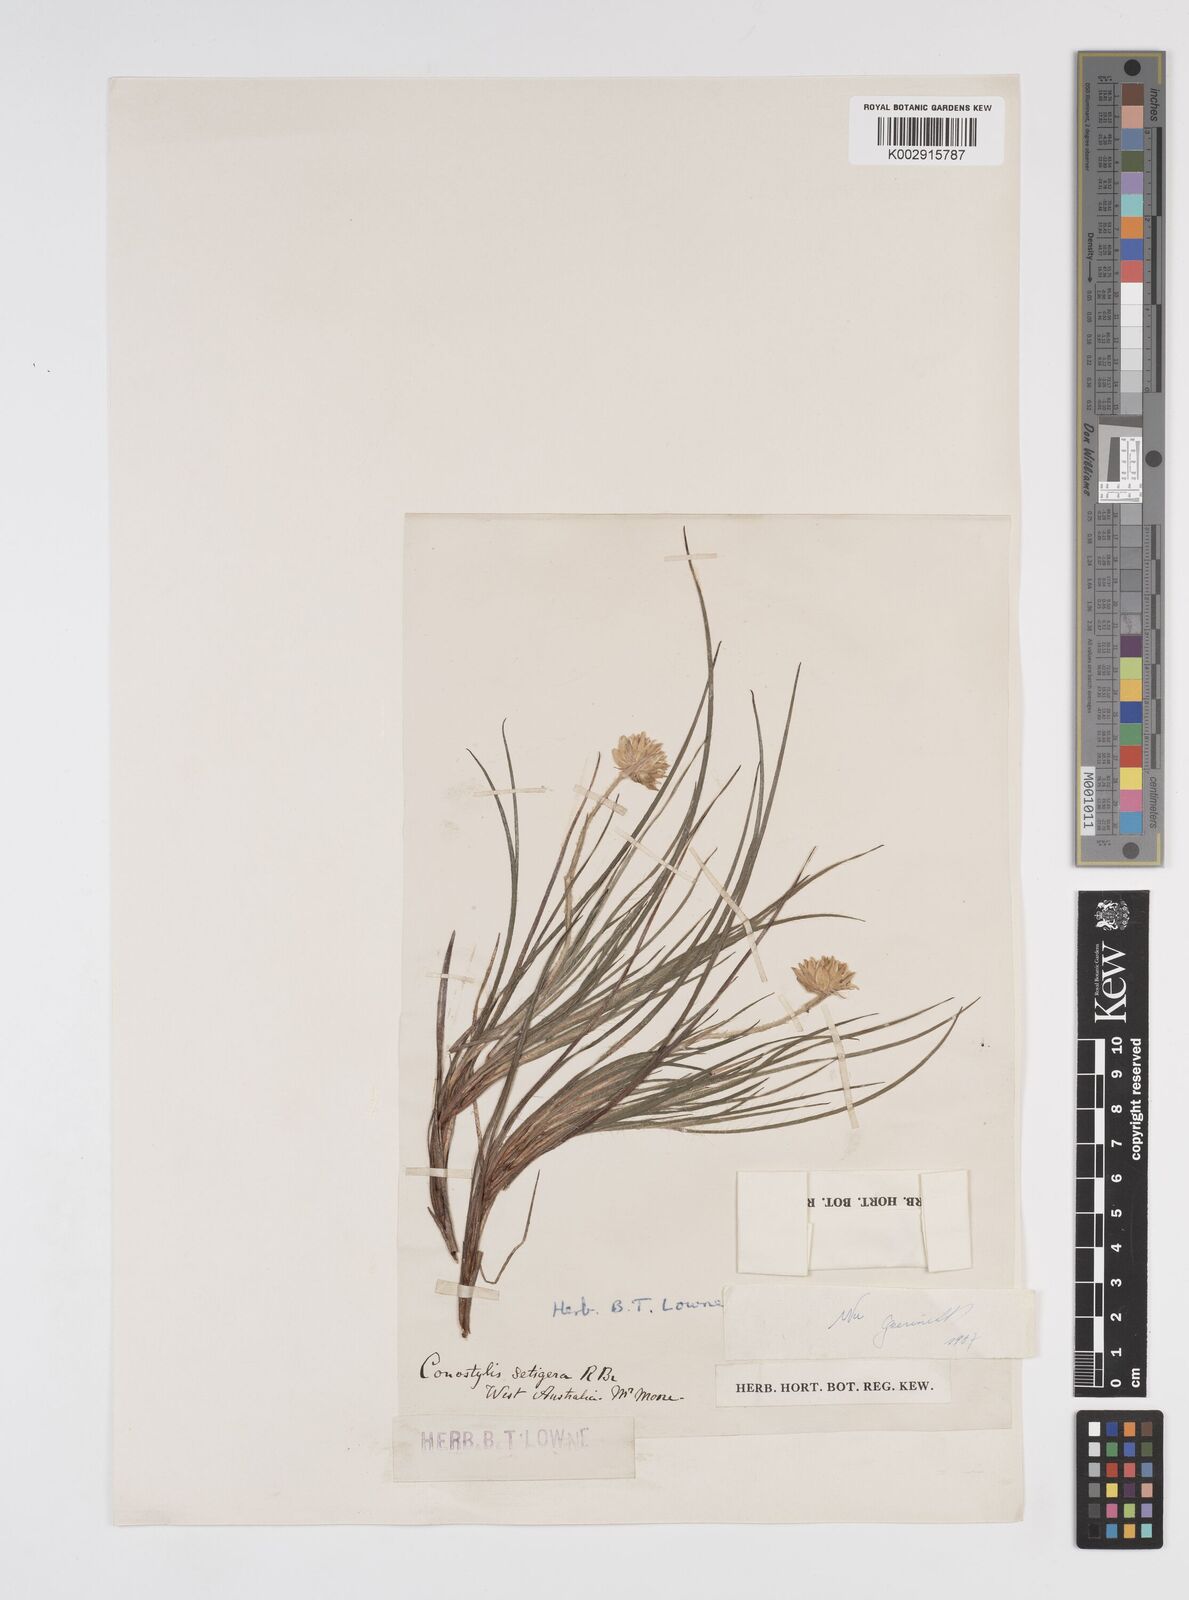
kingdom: Plantae
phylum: Tracheophyta
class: Liliopsida
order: Commelinales
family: Haemodoraceae
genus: Conostylis
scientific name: Conostylis setigera
